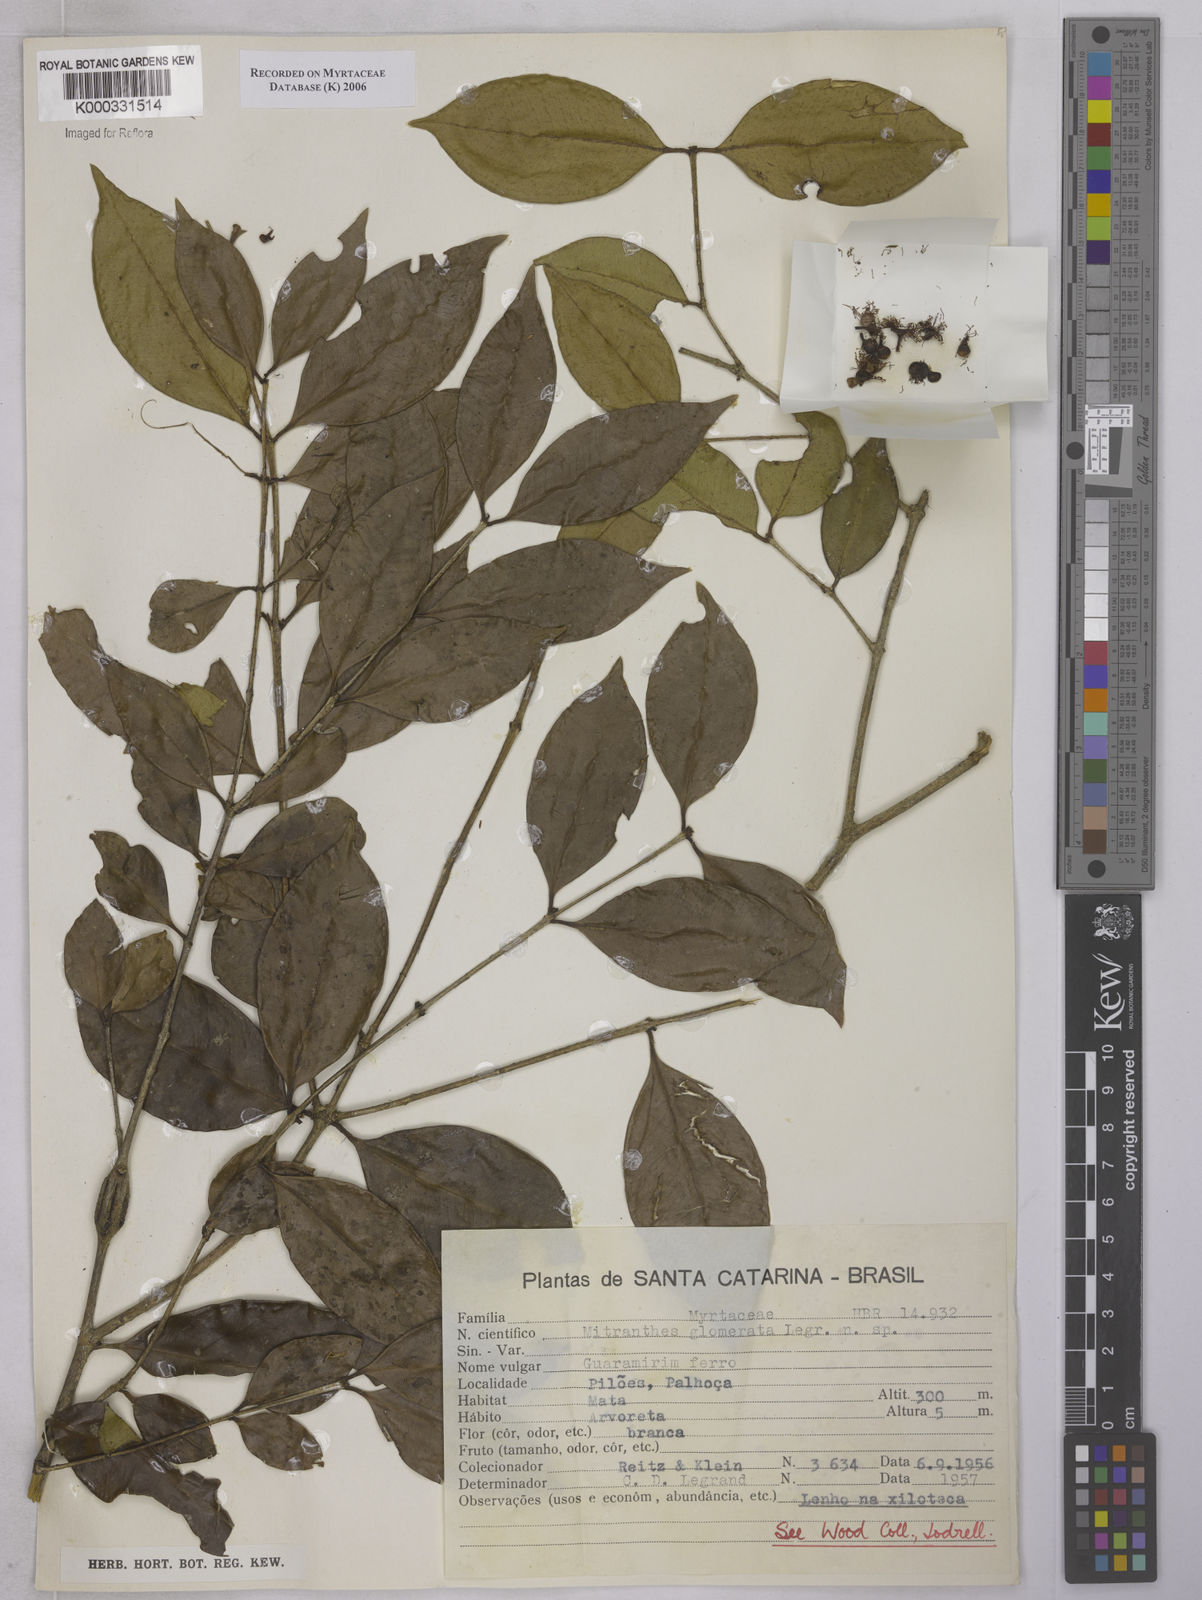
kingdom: Plantae
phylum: Tracheophyta
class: Magnoliopsida
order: Myrtales
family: Myrtaceae
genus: Neomitranthes
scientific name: Neomitranthes glomerata
